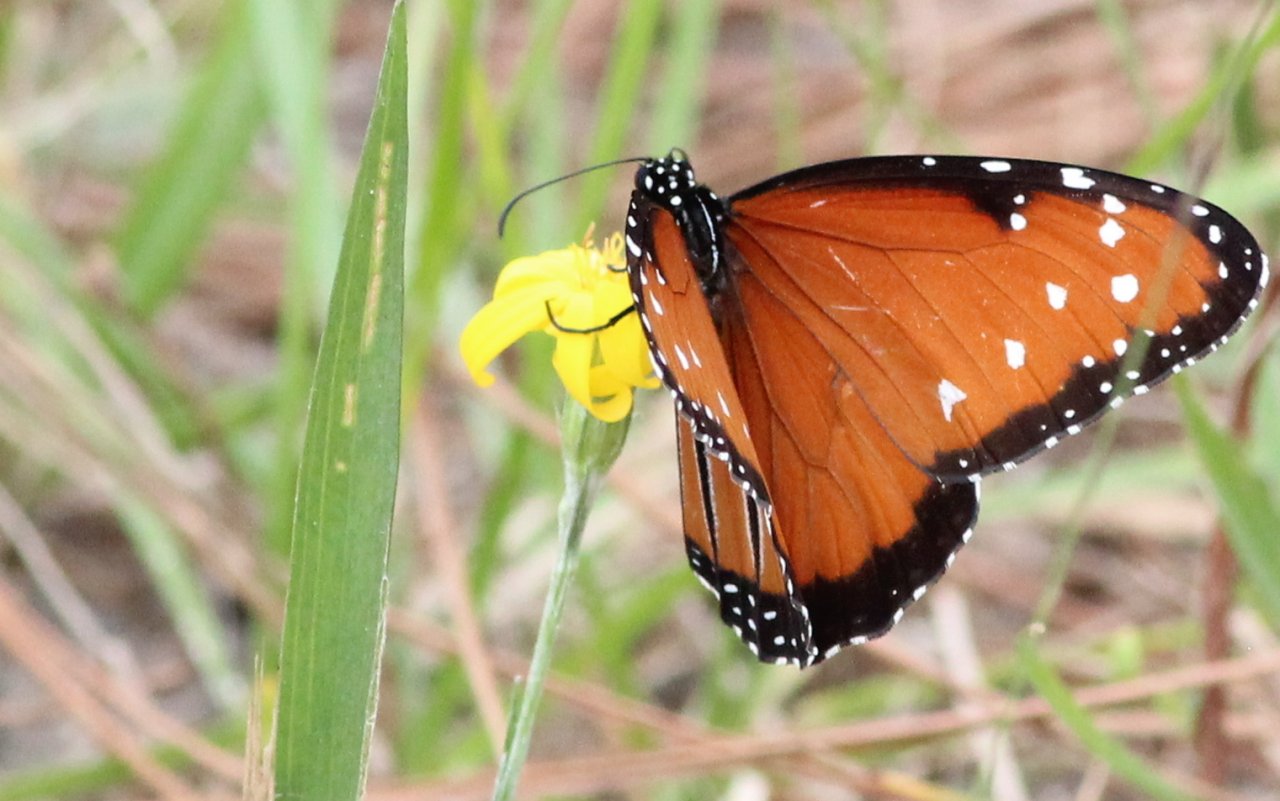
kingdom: Animalia
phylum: Arthropoda
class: Insecta
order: Lepidoptera
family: Nymphalidae
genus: Danaus
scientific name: Danaus gilippus
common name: Queen
